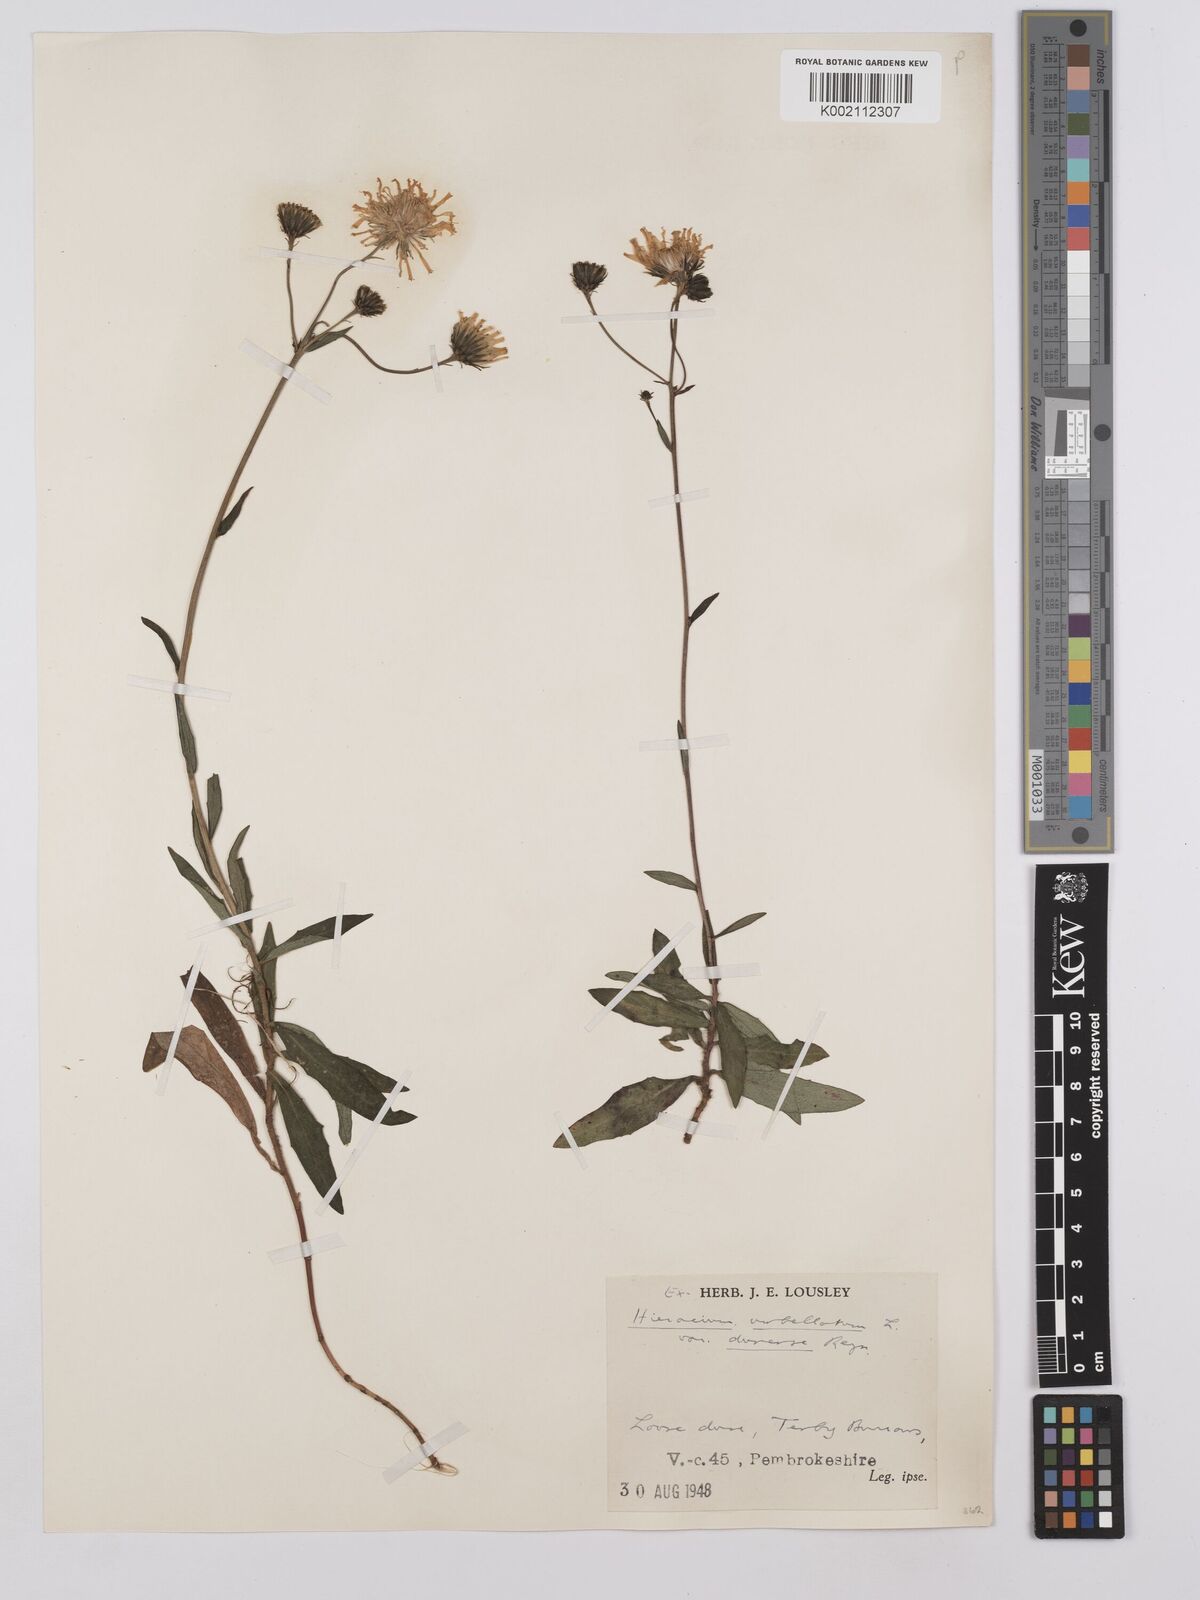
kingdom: Plantae
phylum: Tracheophyta
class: Magnoliopsida
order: Asterales
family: Asteraceae
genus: Hieracium
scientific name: Hieracium umbellatum
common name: Northern hawkweed
